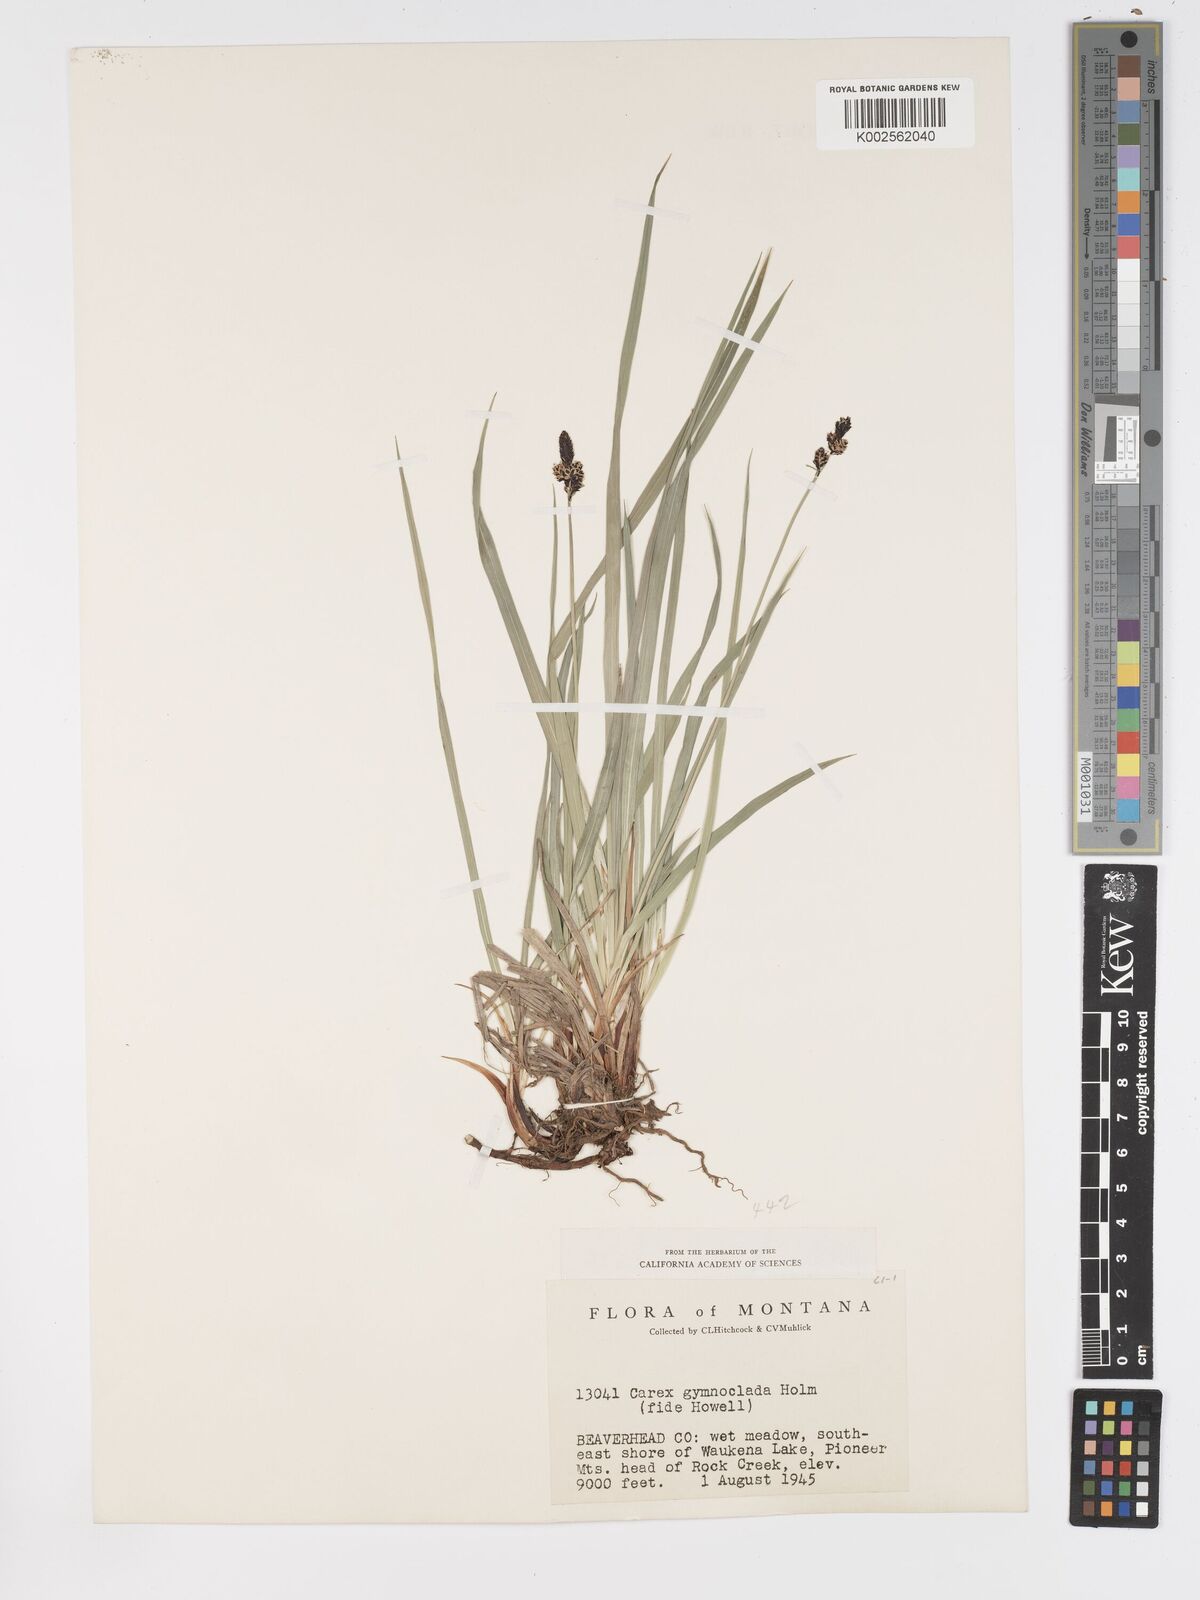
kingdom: Plantae
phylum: Tracheophyta
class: Liliopsida
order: Poales
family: Cyperaceae
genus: Carex
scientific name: Carex scopulorum
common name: Holm's rocky mountain sedge
